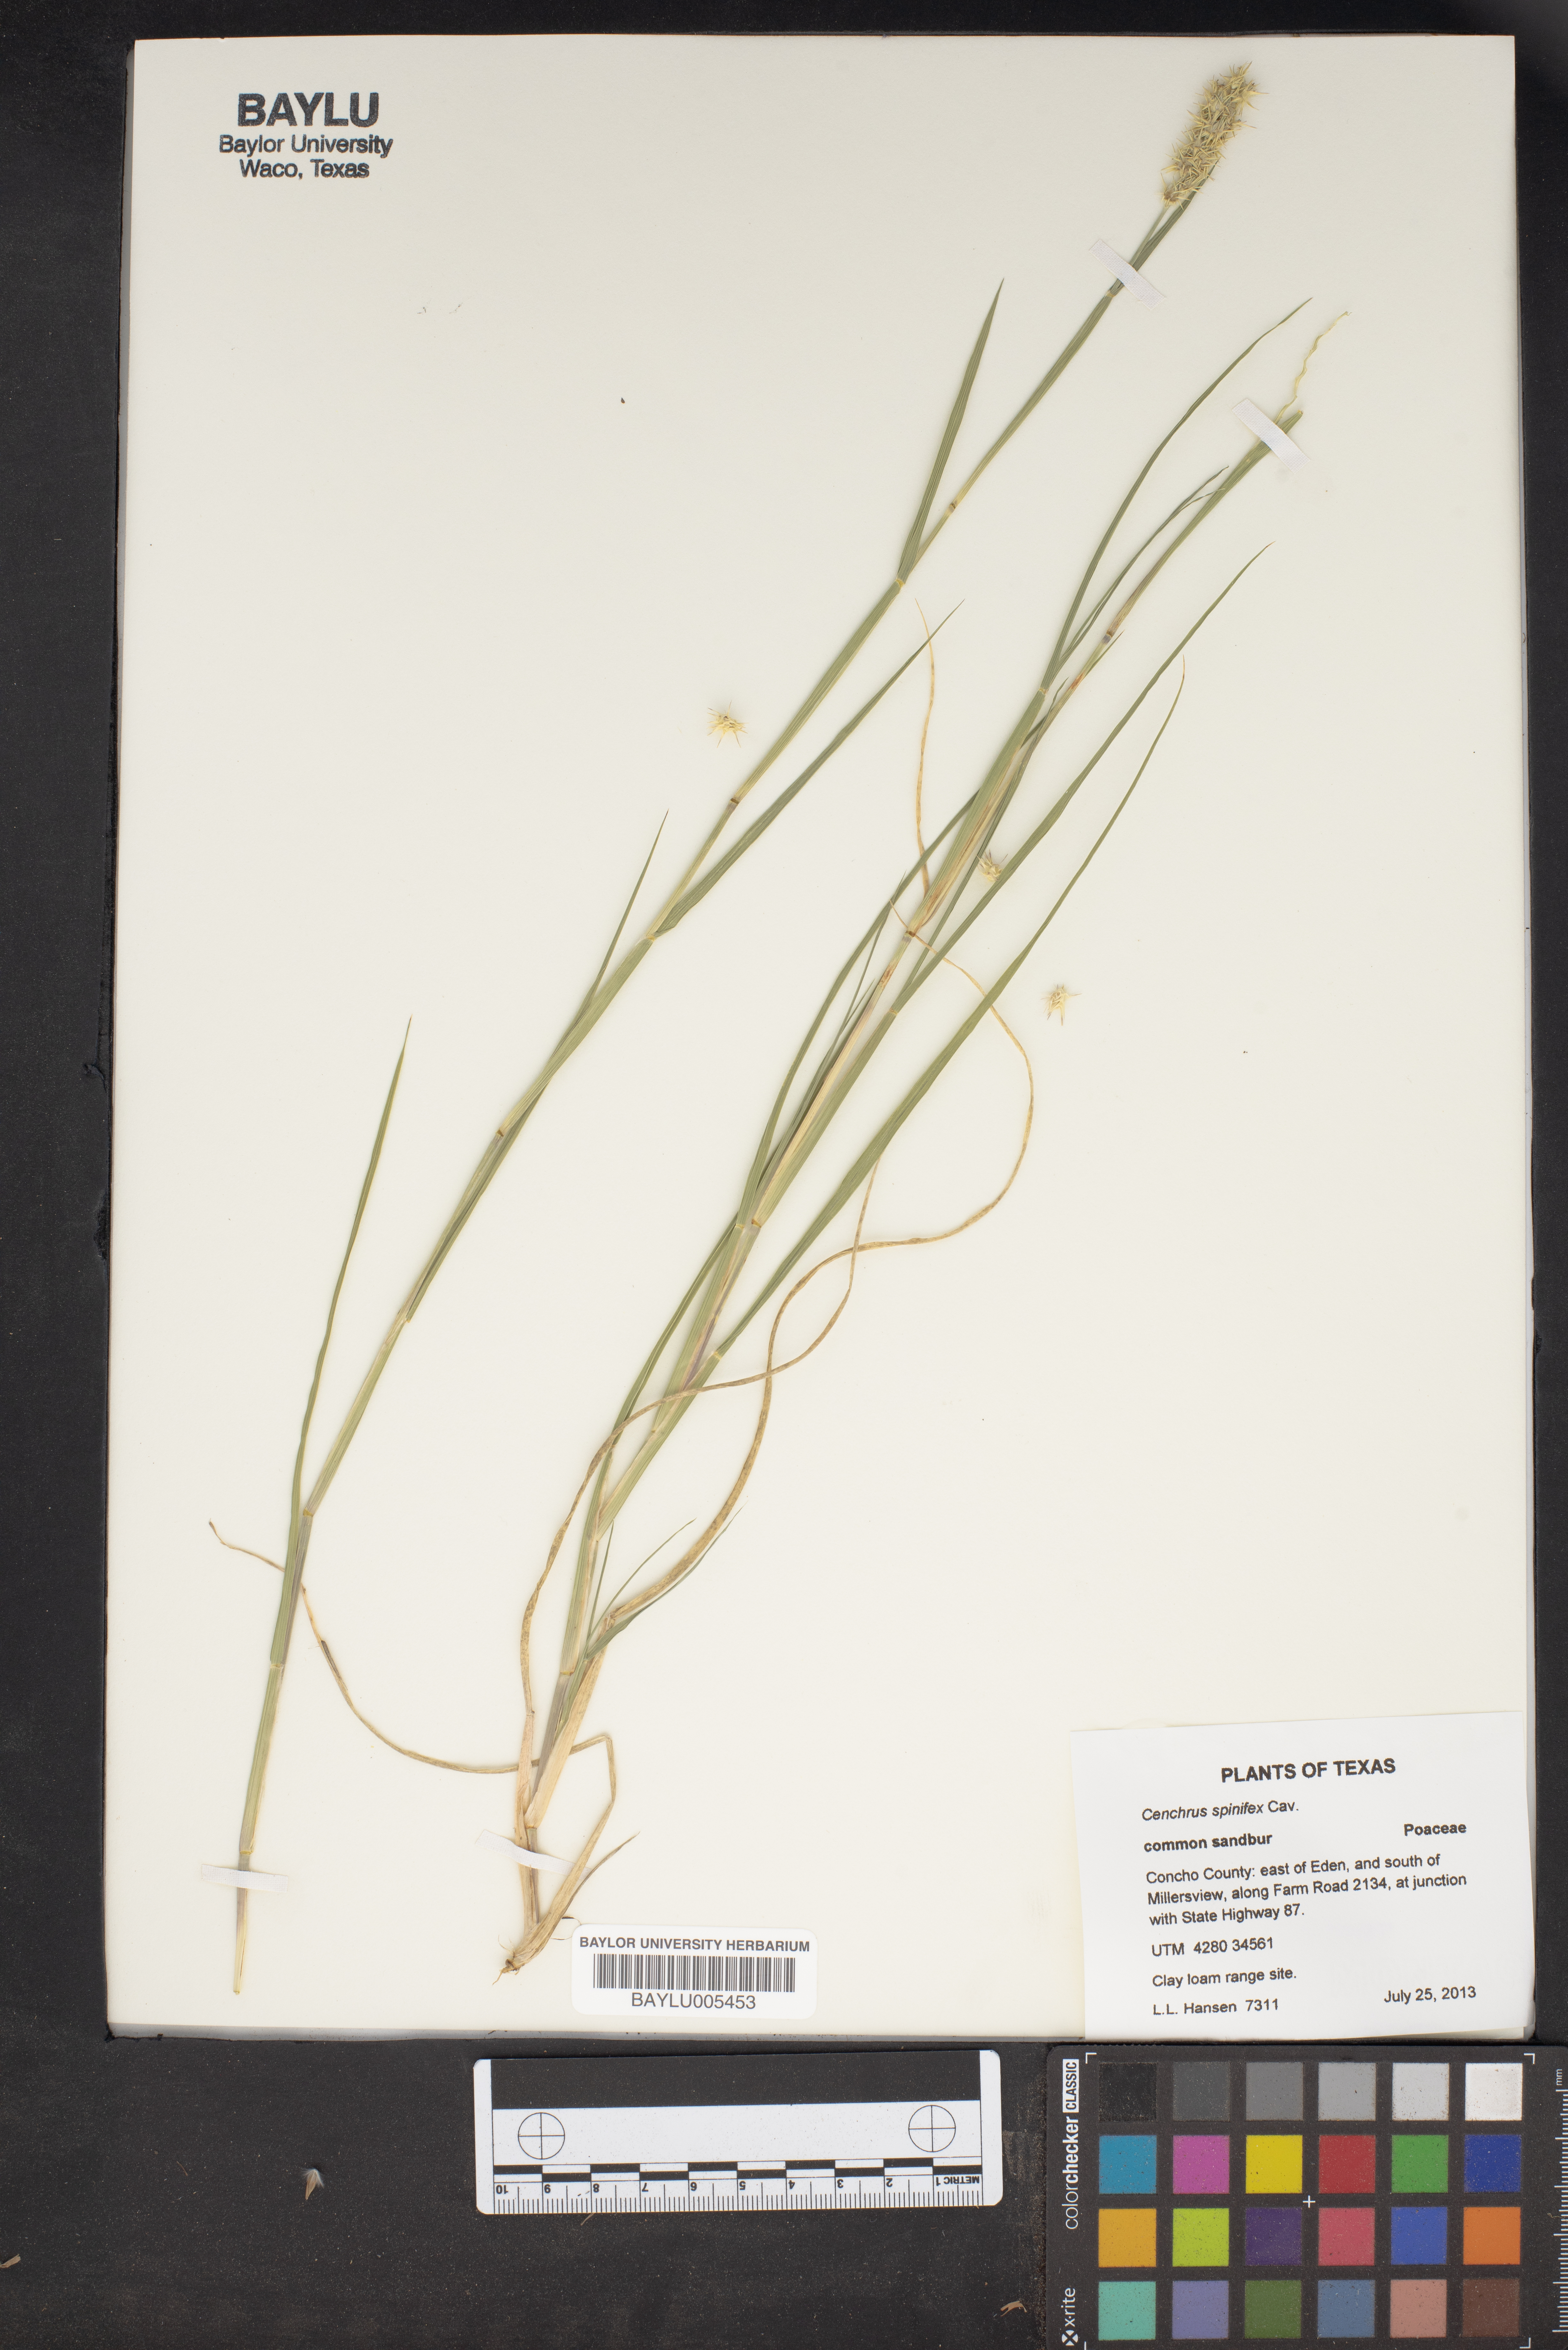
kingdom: Plantae
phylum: Tracheophyta
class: Liliopsida
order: Poales
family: Poaceae
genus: Cenchrus
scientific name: Cenchrus spinifex
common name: Coast sandbur
